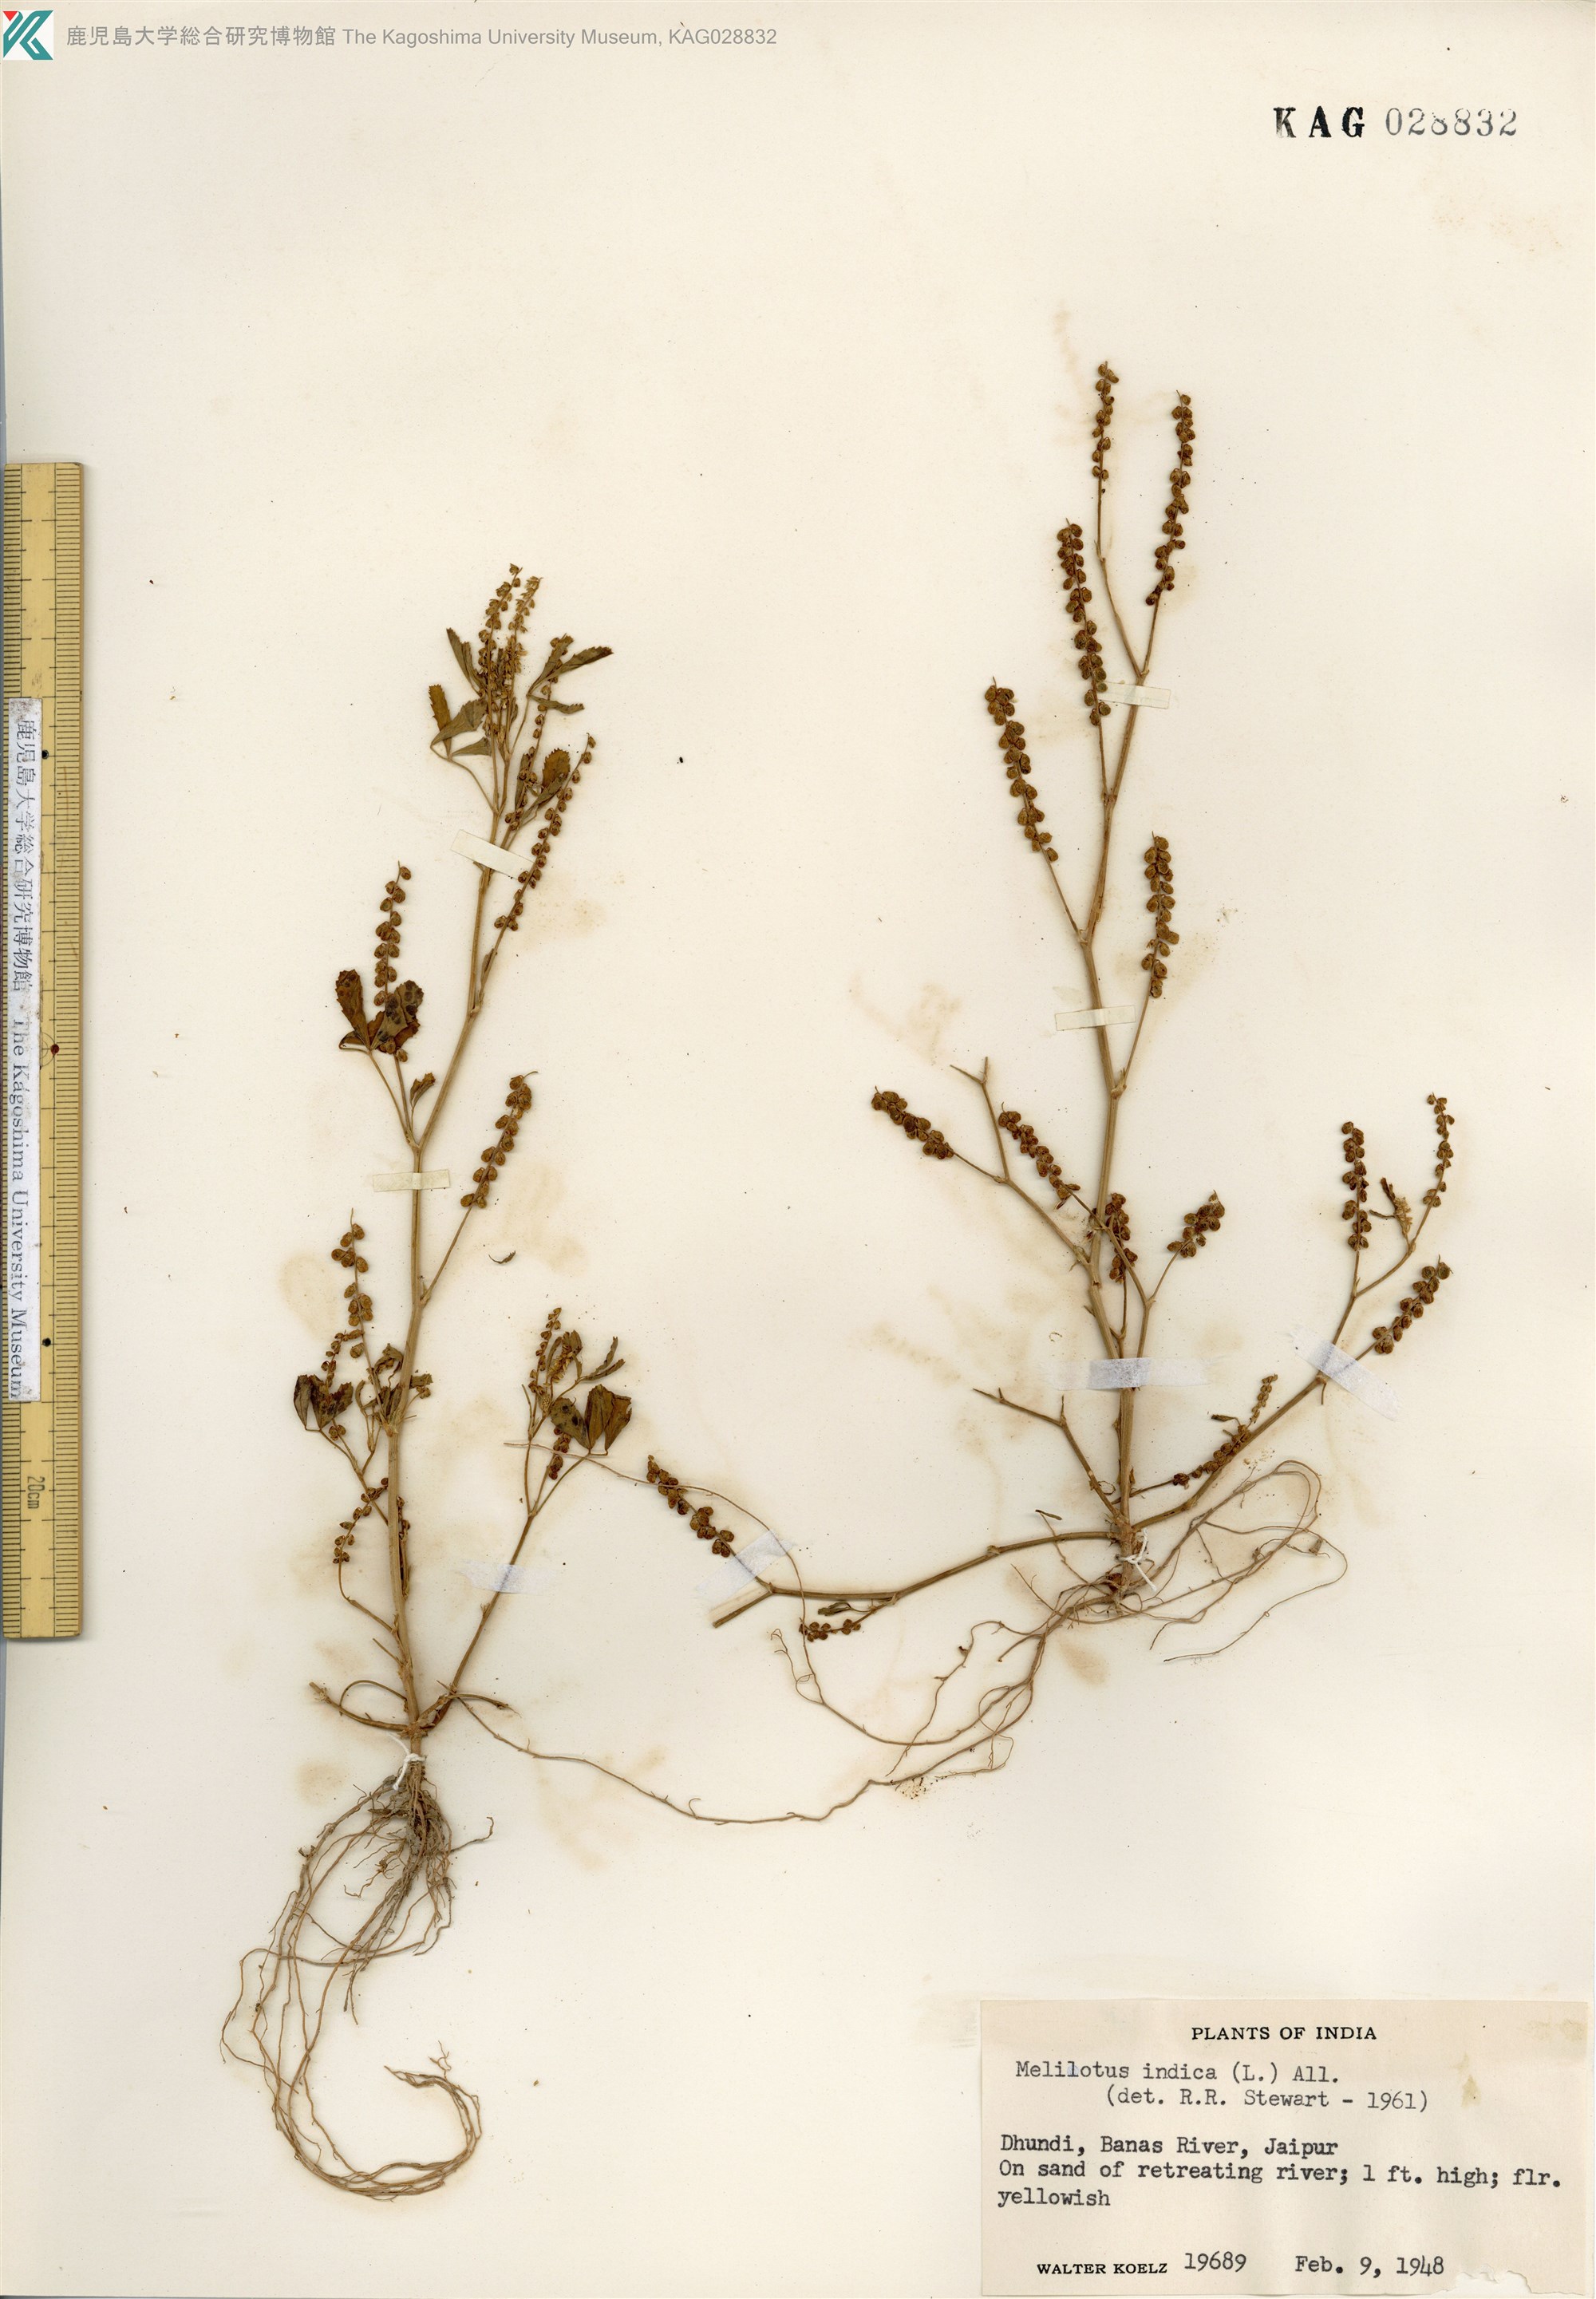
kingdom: Plantae
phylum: Tracheophyta
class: Magnoliopsida
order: Fabales
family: Fabaceae
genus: Melilotus
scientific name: Melilotus indicus
